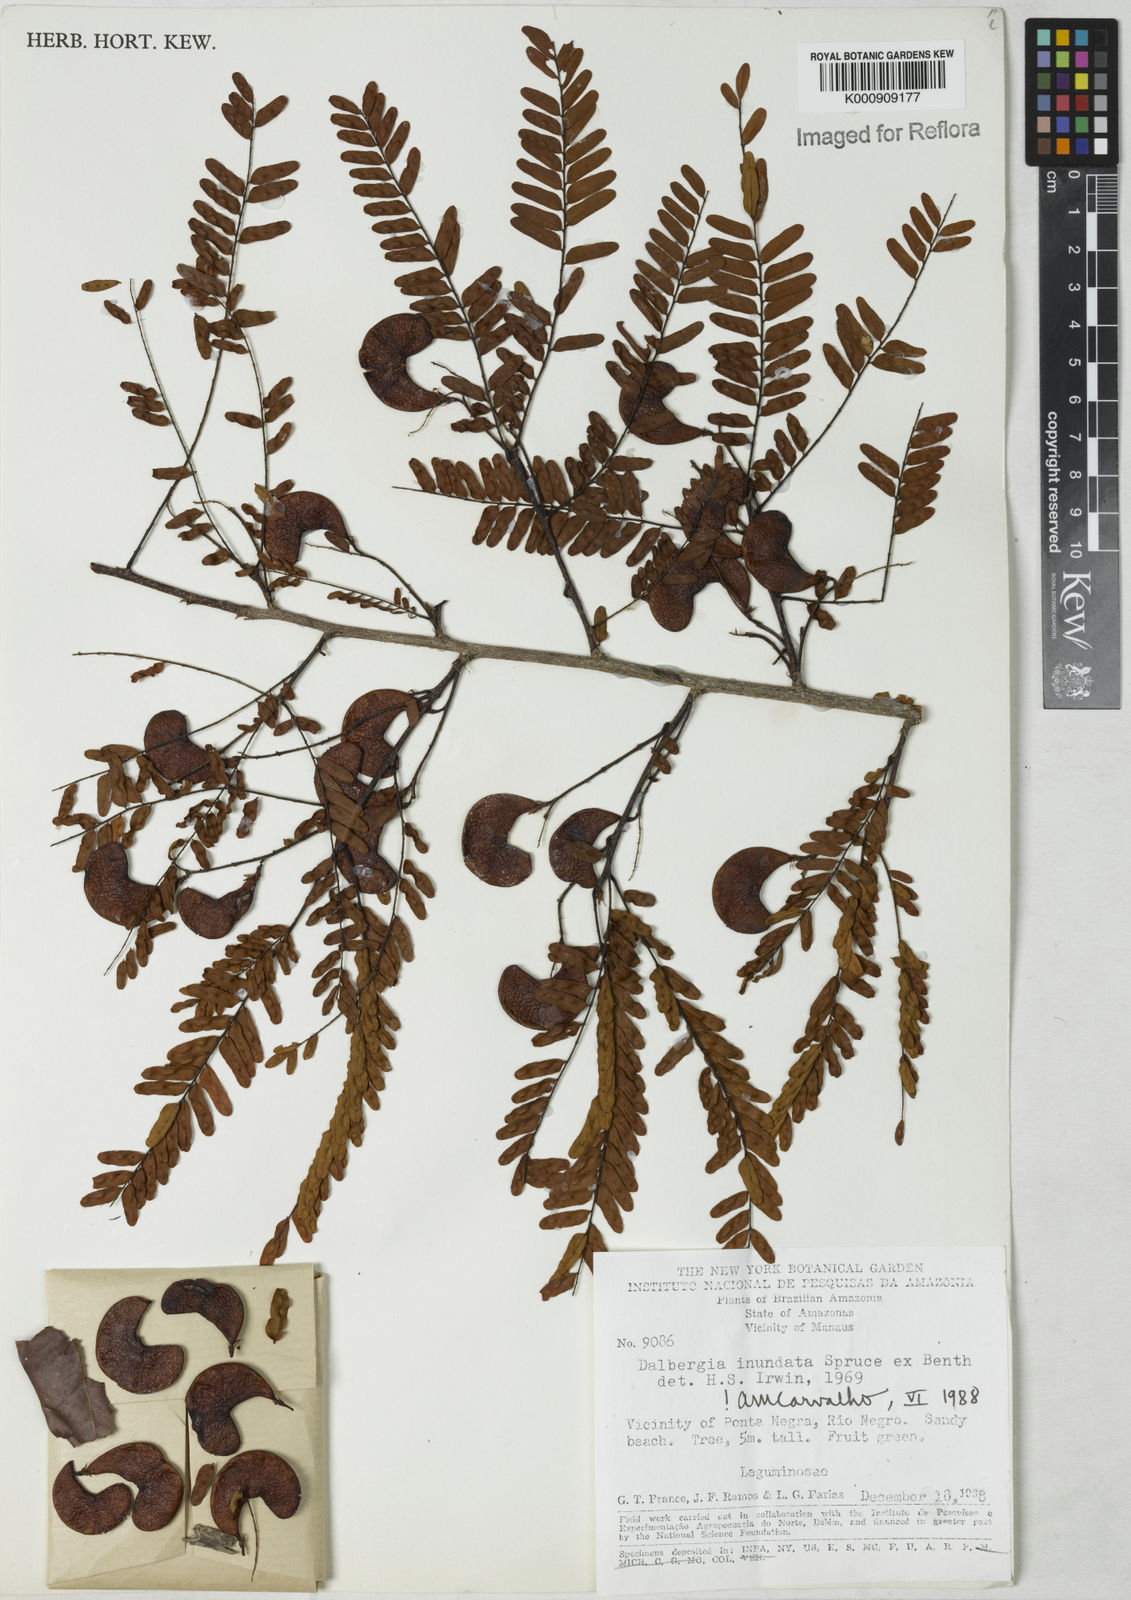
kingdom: Plantae
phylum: Tracheophyta
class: Magnoliopsida
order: Fabales
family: Fabaceae
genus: Dalbergia
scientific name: Dalbergia inundata
